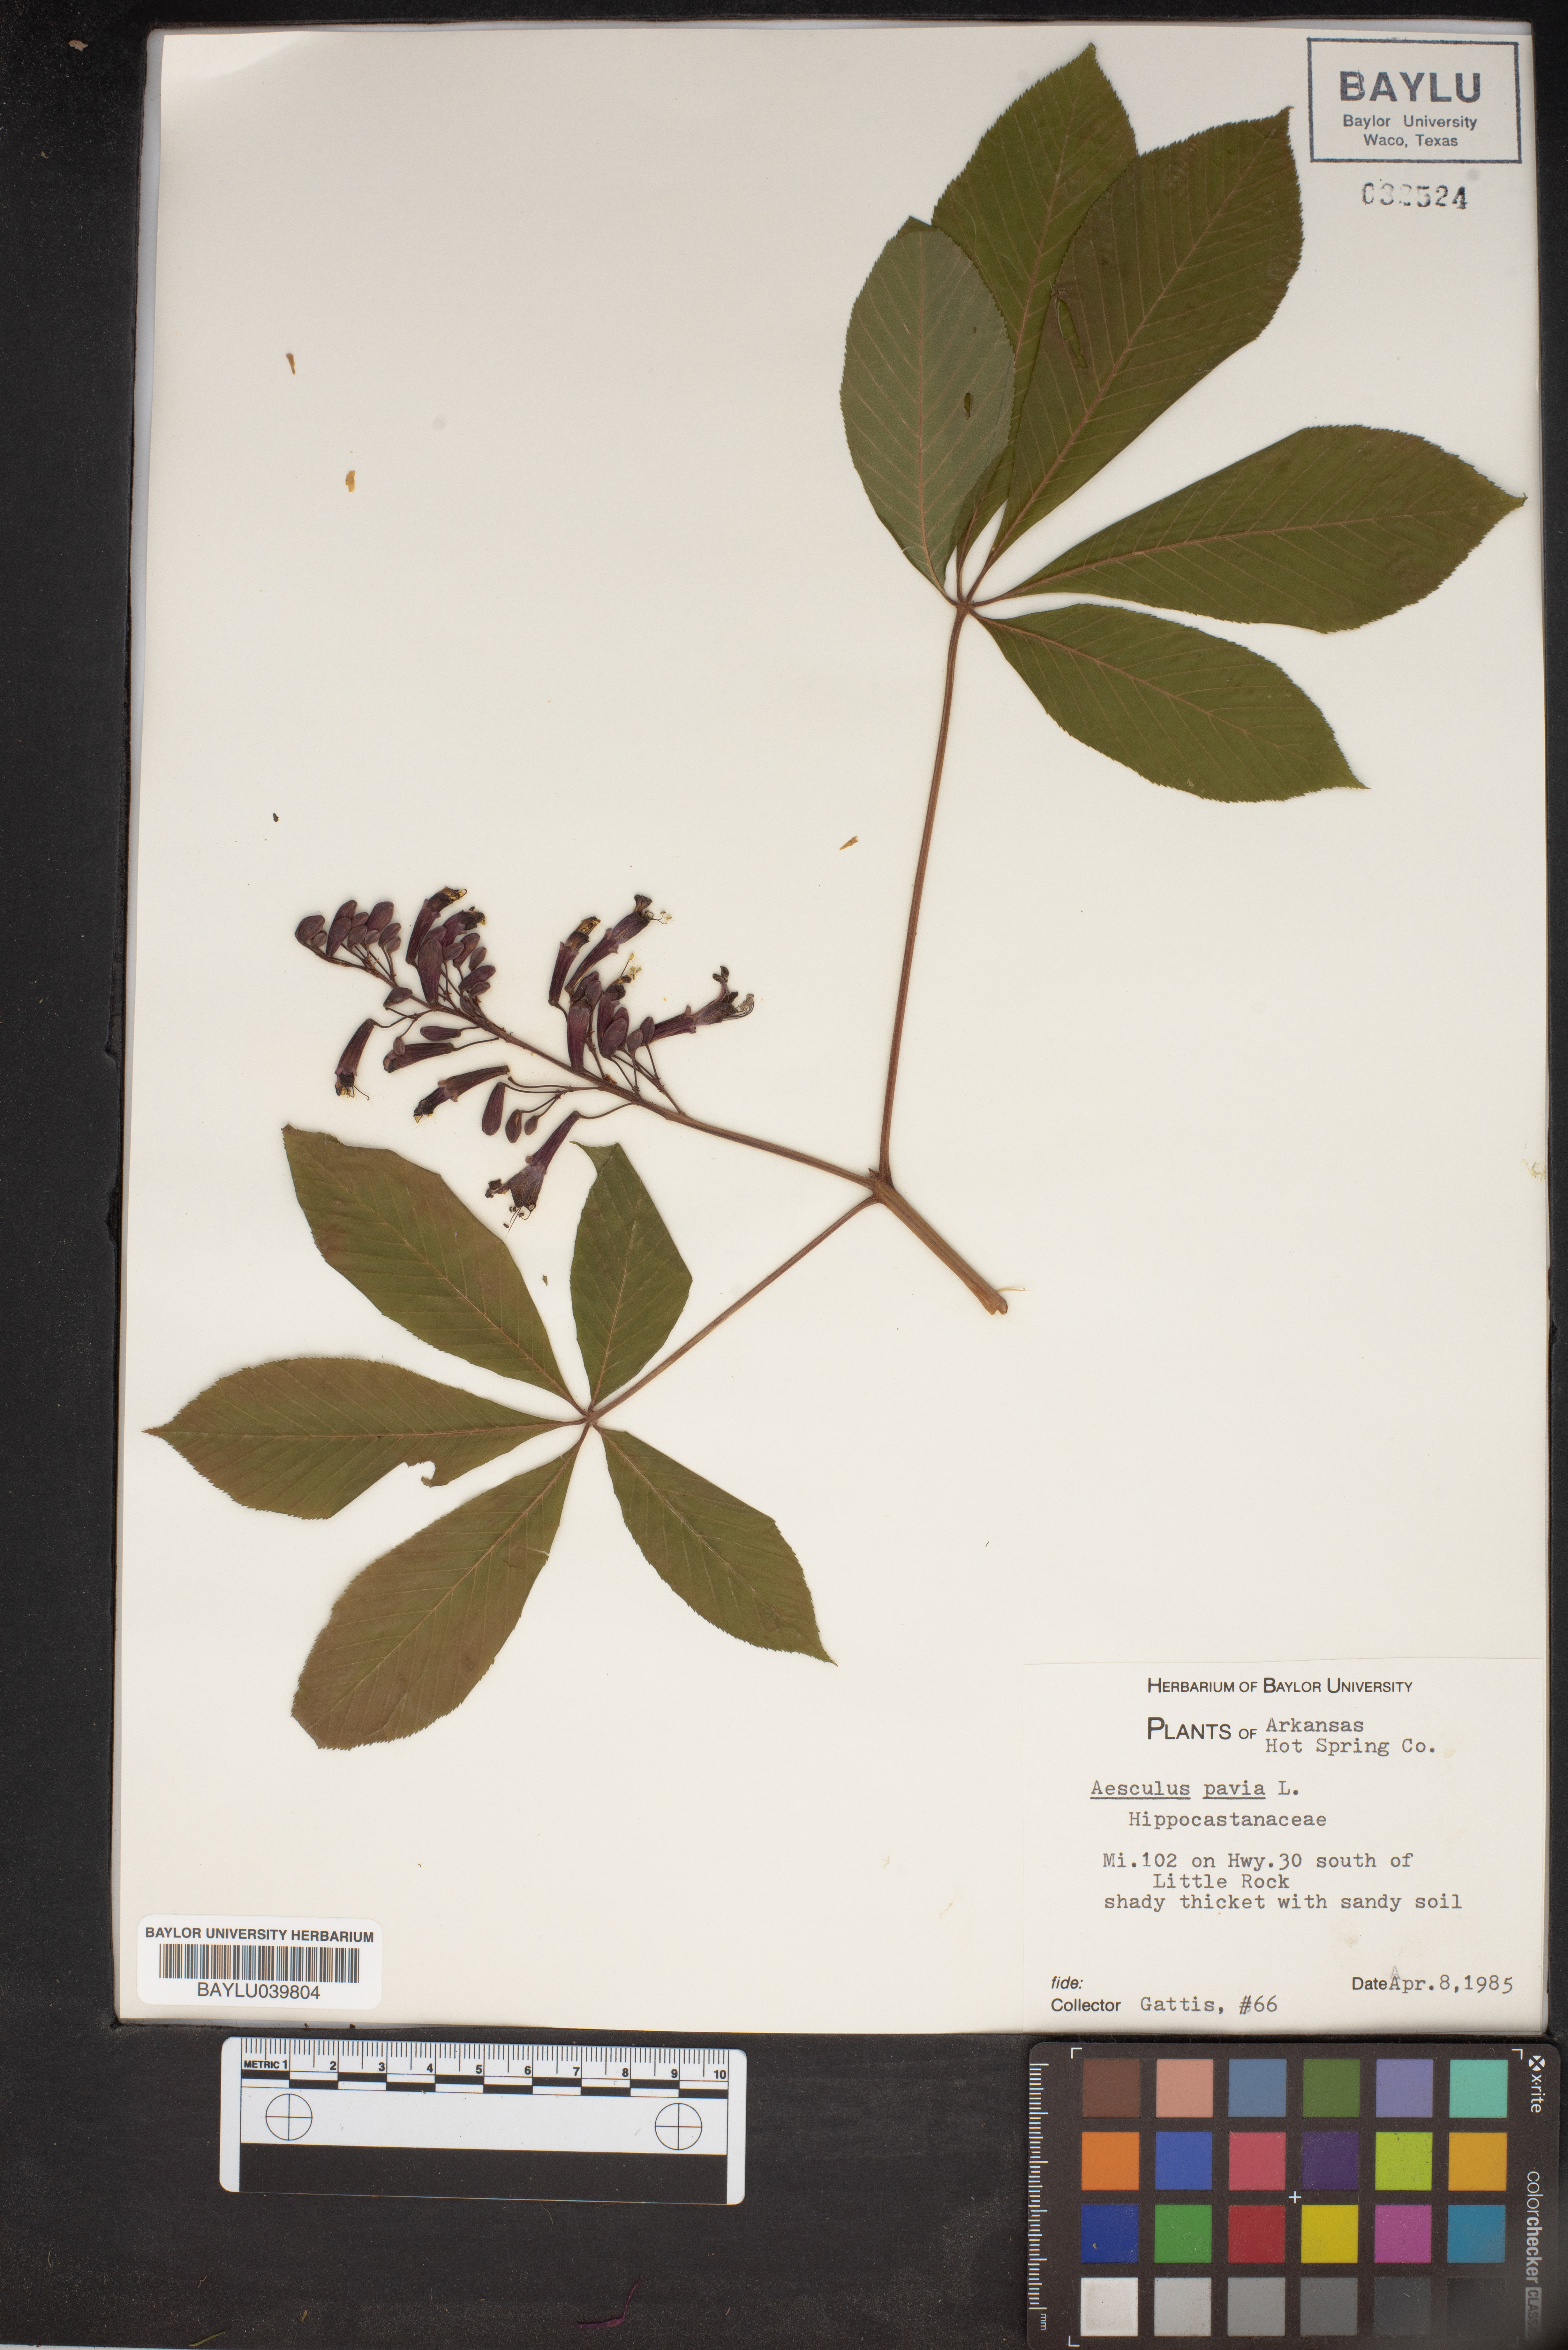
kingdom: Plantae
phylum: Tracheophyta
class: Magnoliopsida
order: Sapindales
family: Sapindaceae
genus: Aesculus
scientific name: Aesculus pavia
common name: Red buckeye
